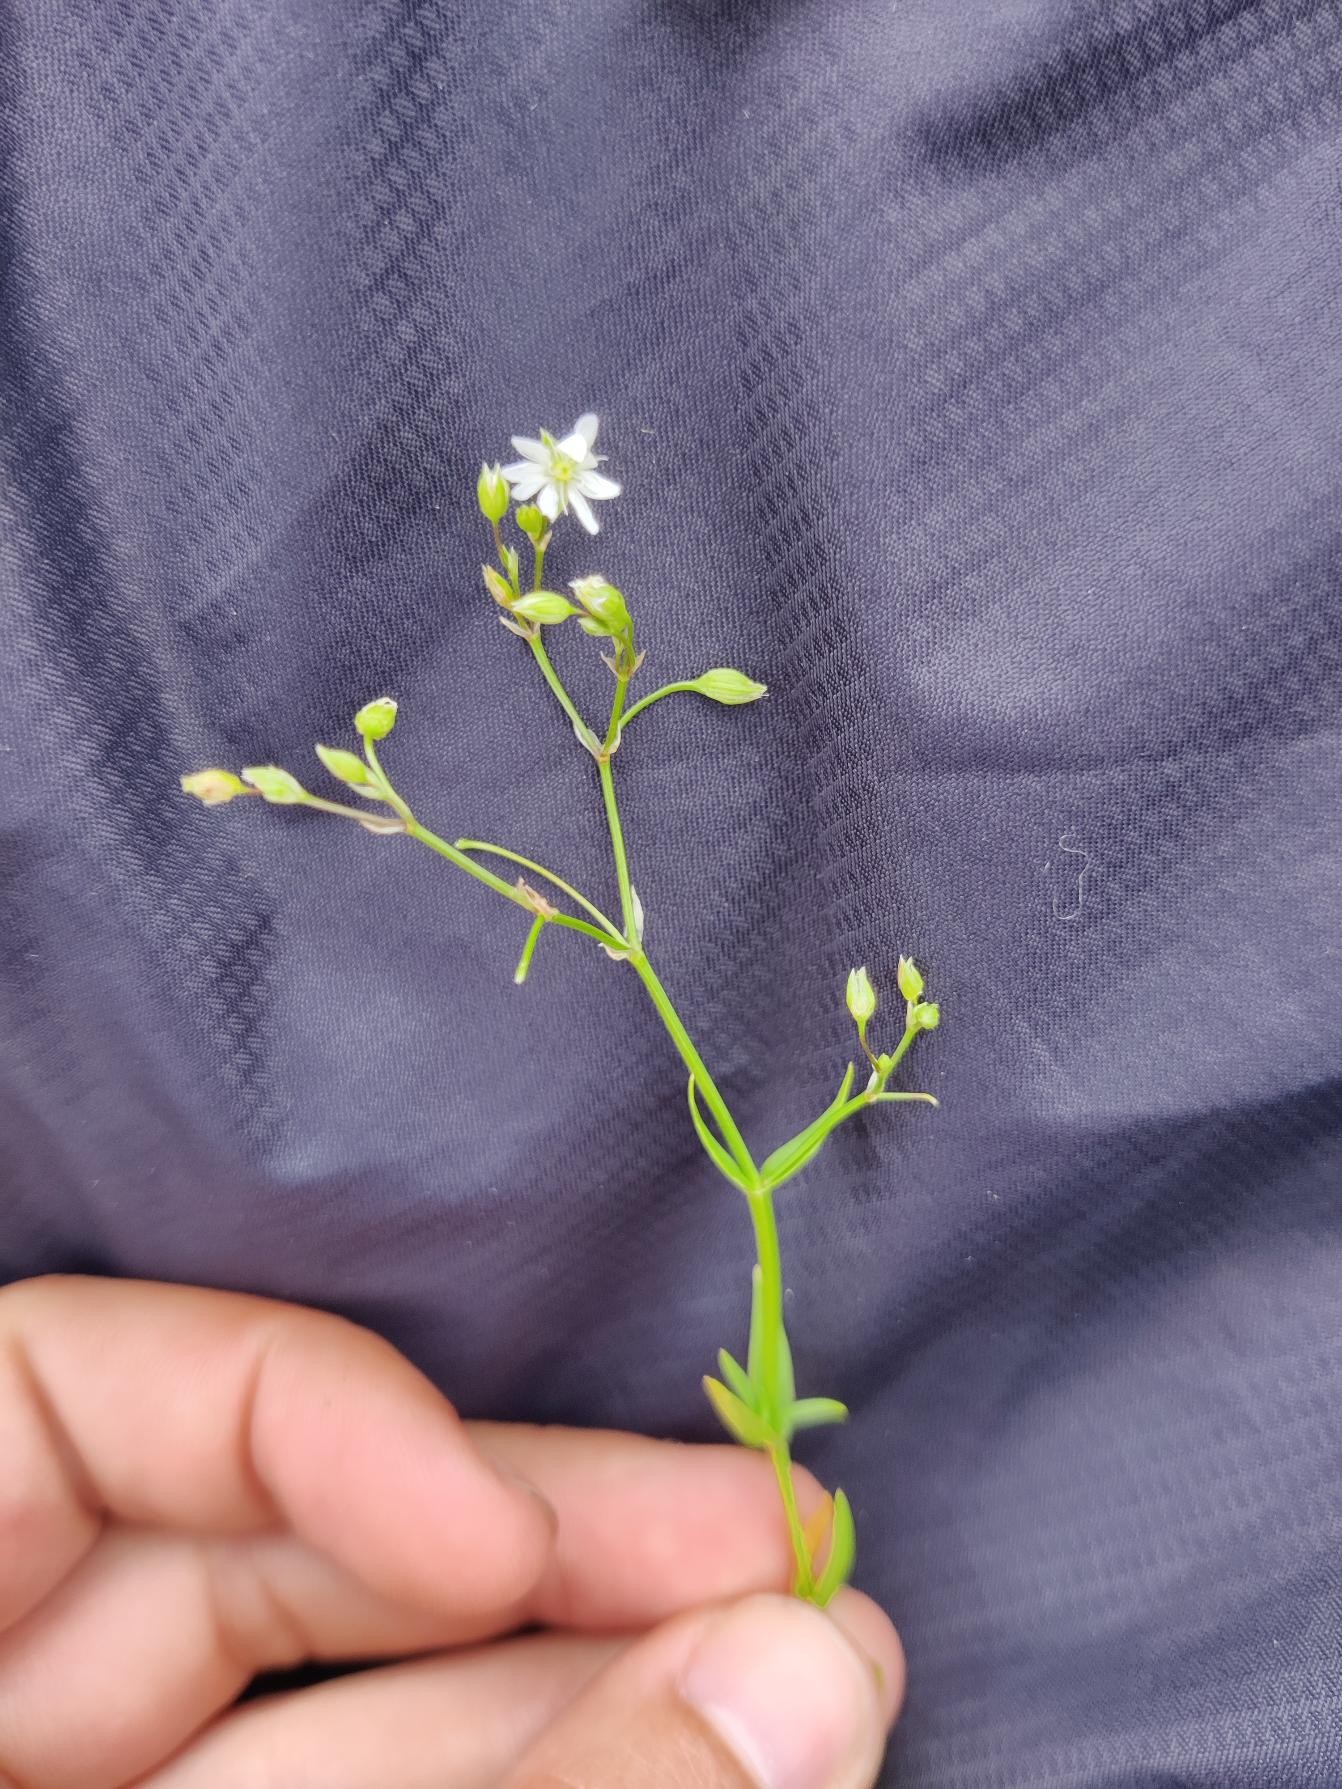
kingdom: Plantae
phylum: Tracheophyta
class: Magnoliopsida
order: Caryophyllales
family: Caryophyllaceae
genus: Stellaria
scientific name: Stellaria graminea
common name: Græsbladet fladstjerne
